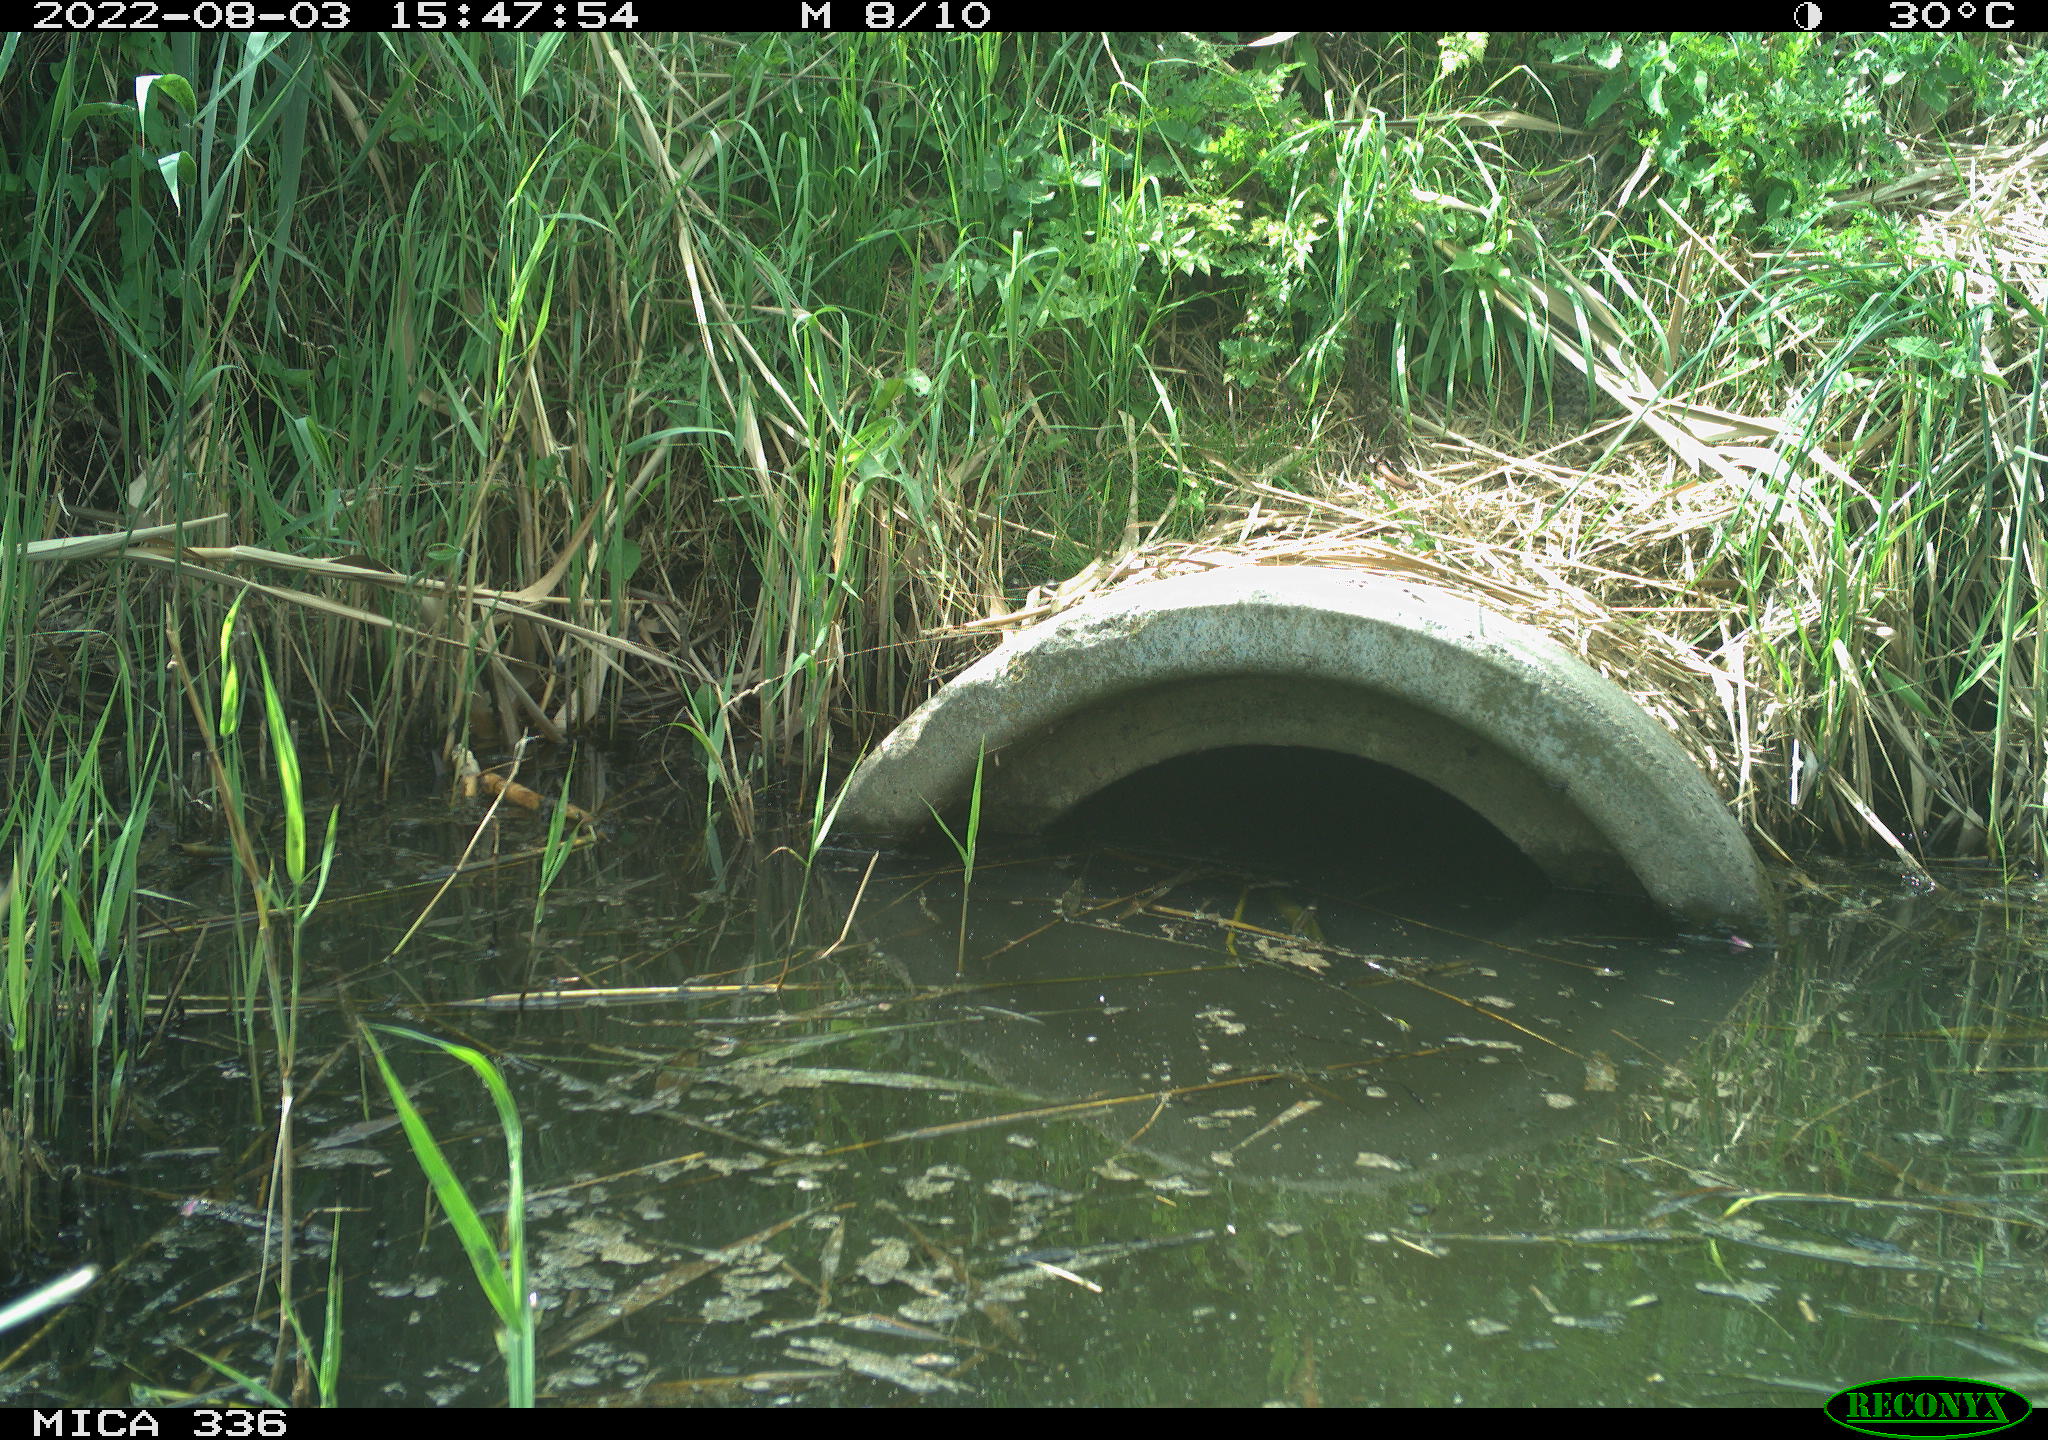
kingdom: Animalia
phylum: Chordata
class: Aves
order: Anseriformes
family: Anatidae
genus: Anas
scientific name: Anas platyrhynchos
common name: Mallard
